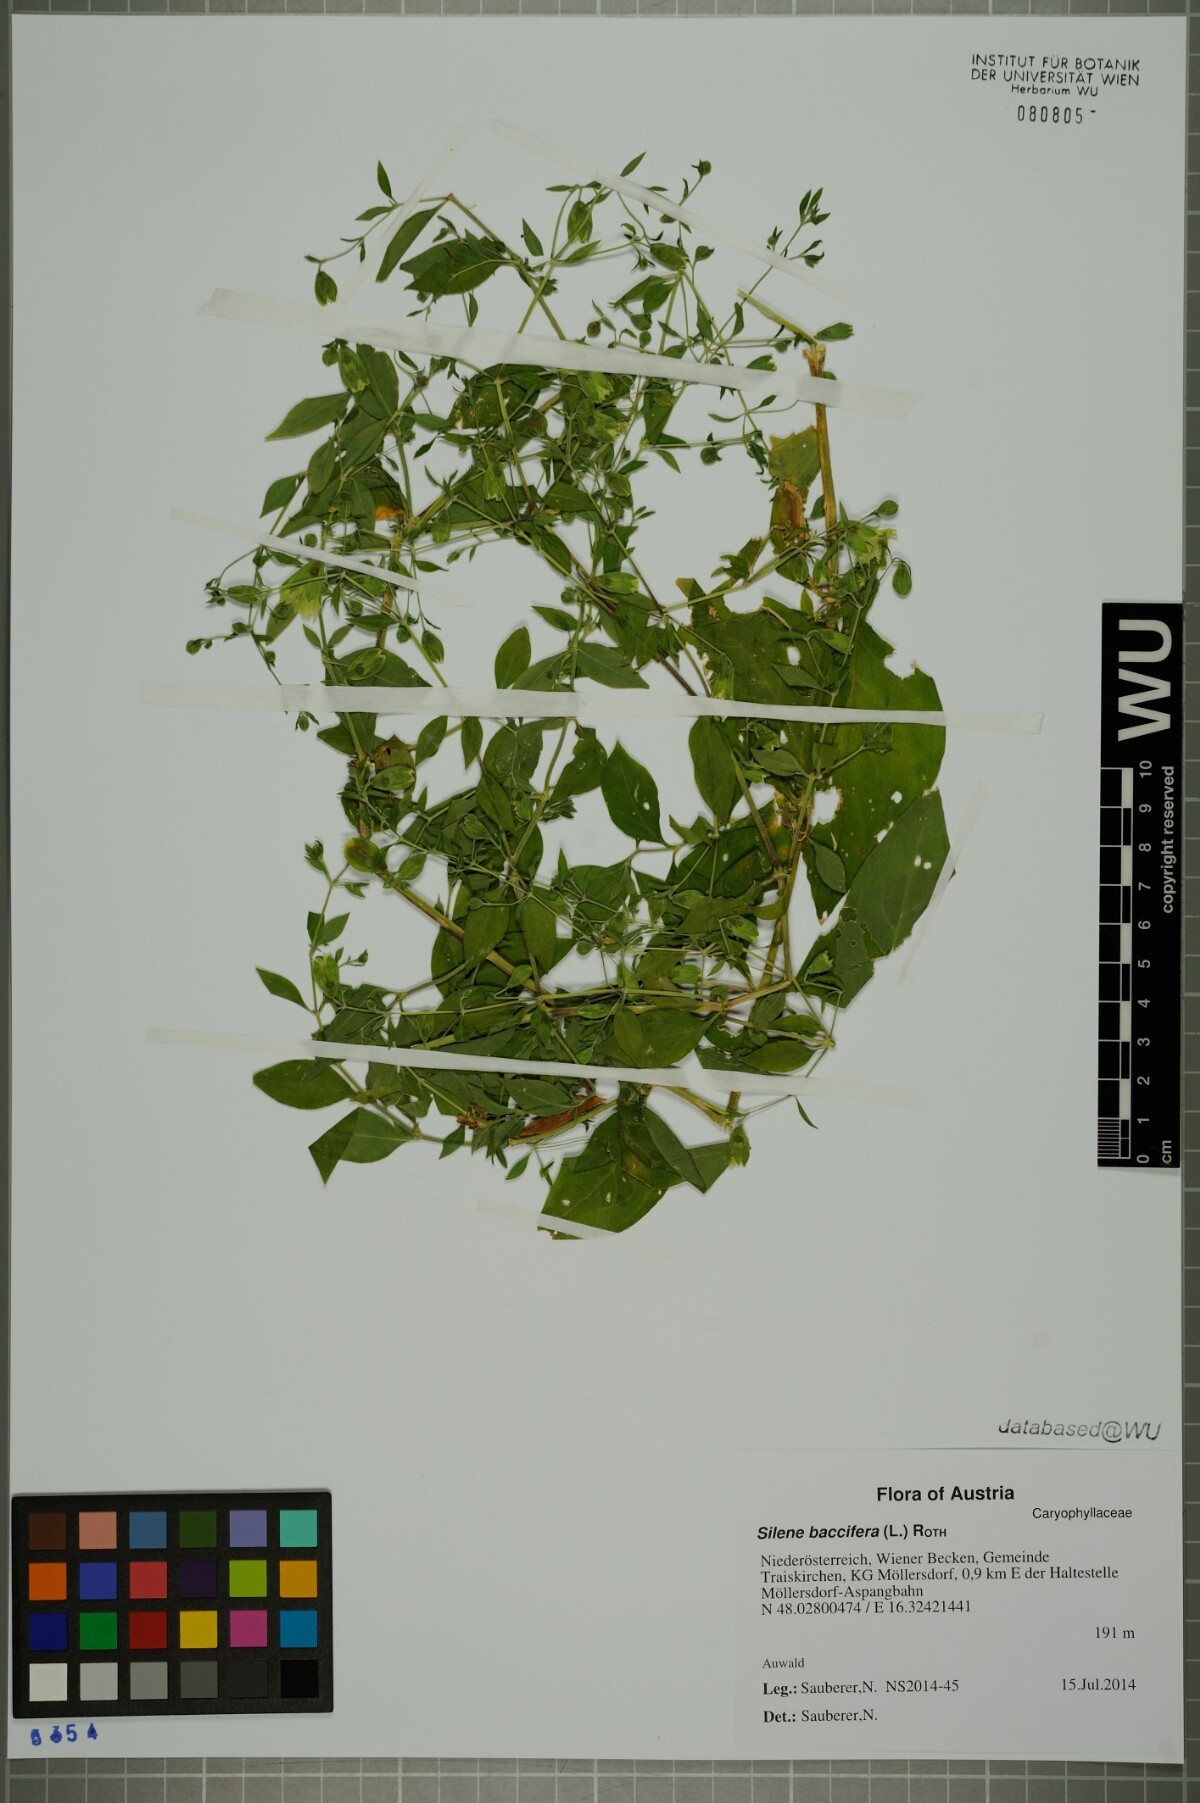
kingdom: Plantae
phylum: Tracheophyta
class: Magnoliopsida
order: Caryophyllales
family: Caryophyllaceae
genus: Silene
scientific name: Silene baccifera
